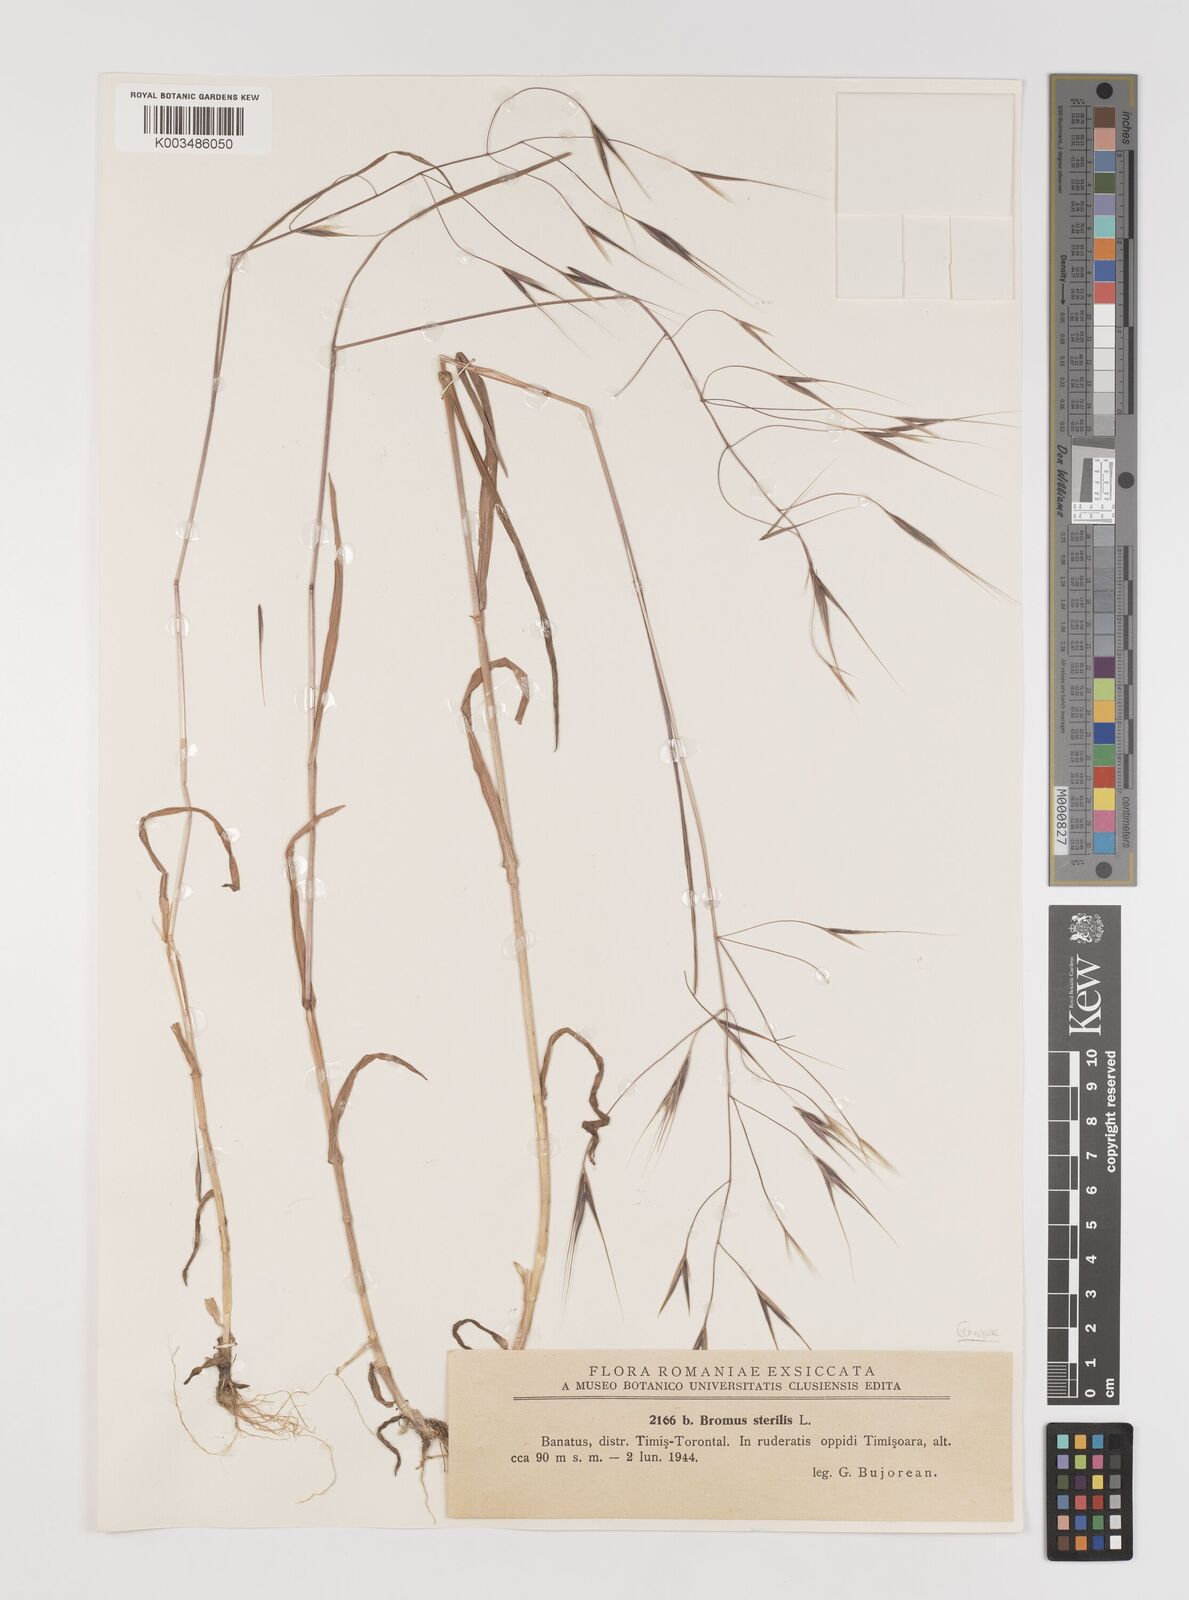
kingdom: Plantae
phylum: Tracheophyta
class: Liliopsida
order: Poales
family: Poaceae
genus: Bromus
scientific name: Bromus sterilis
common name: Poverty brome
